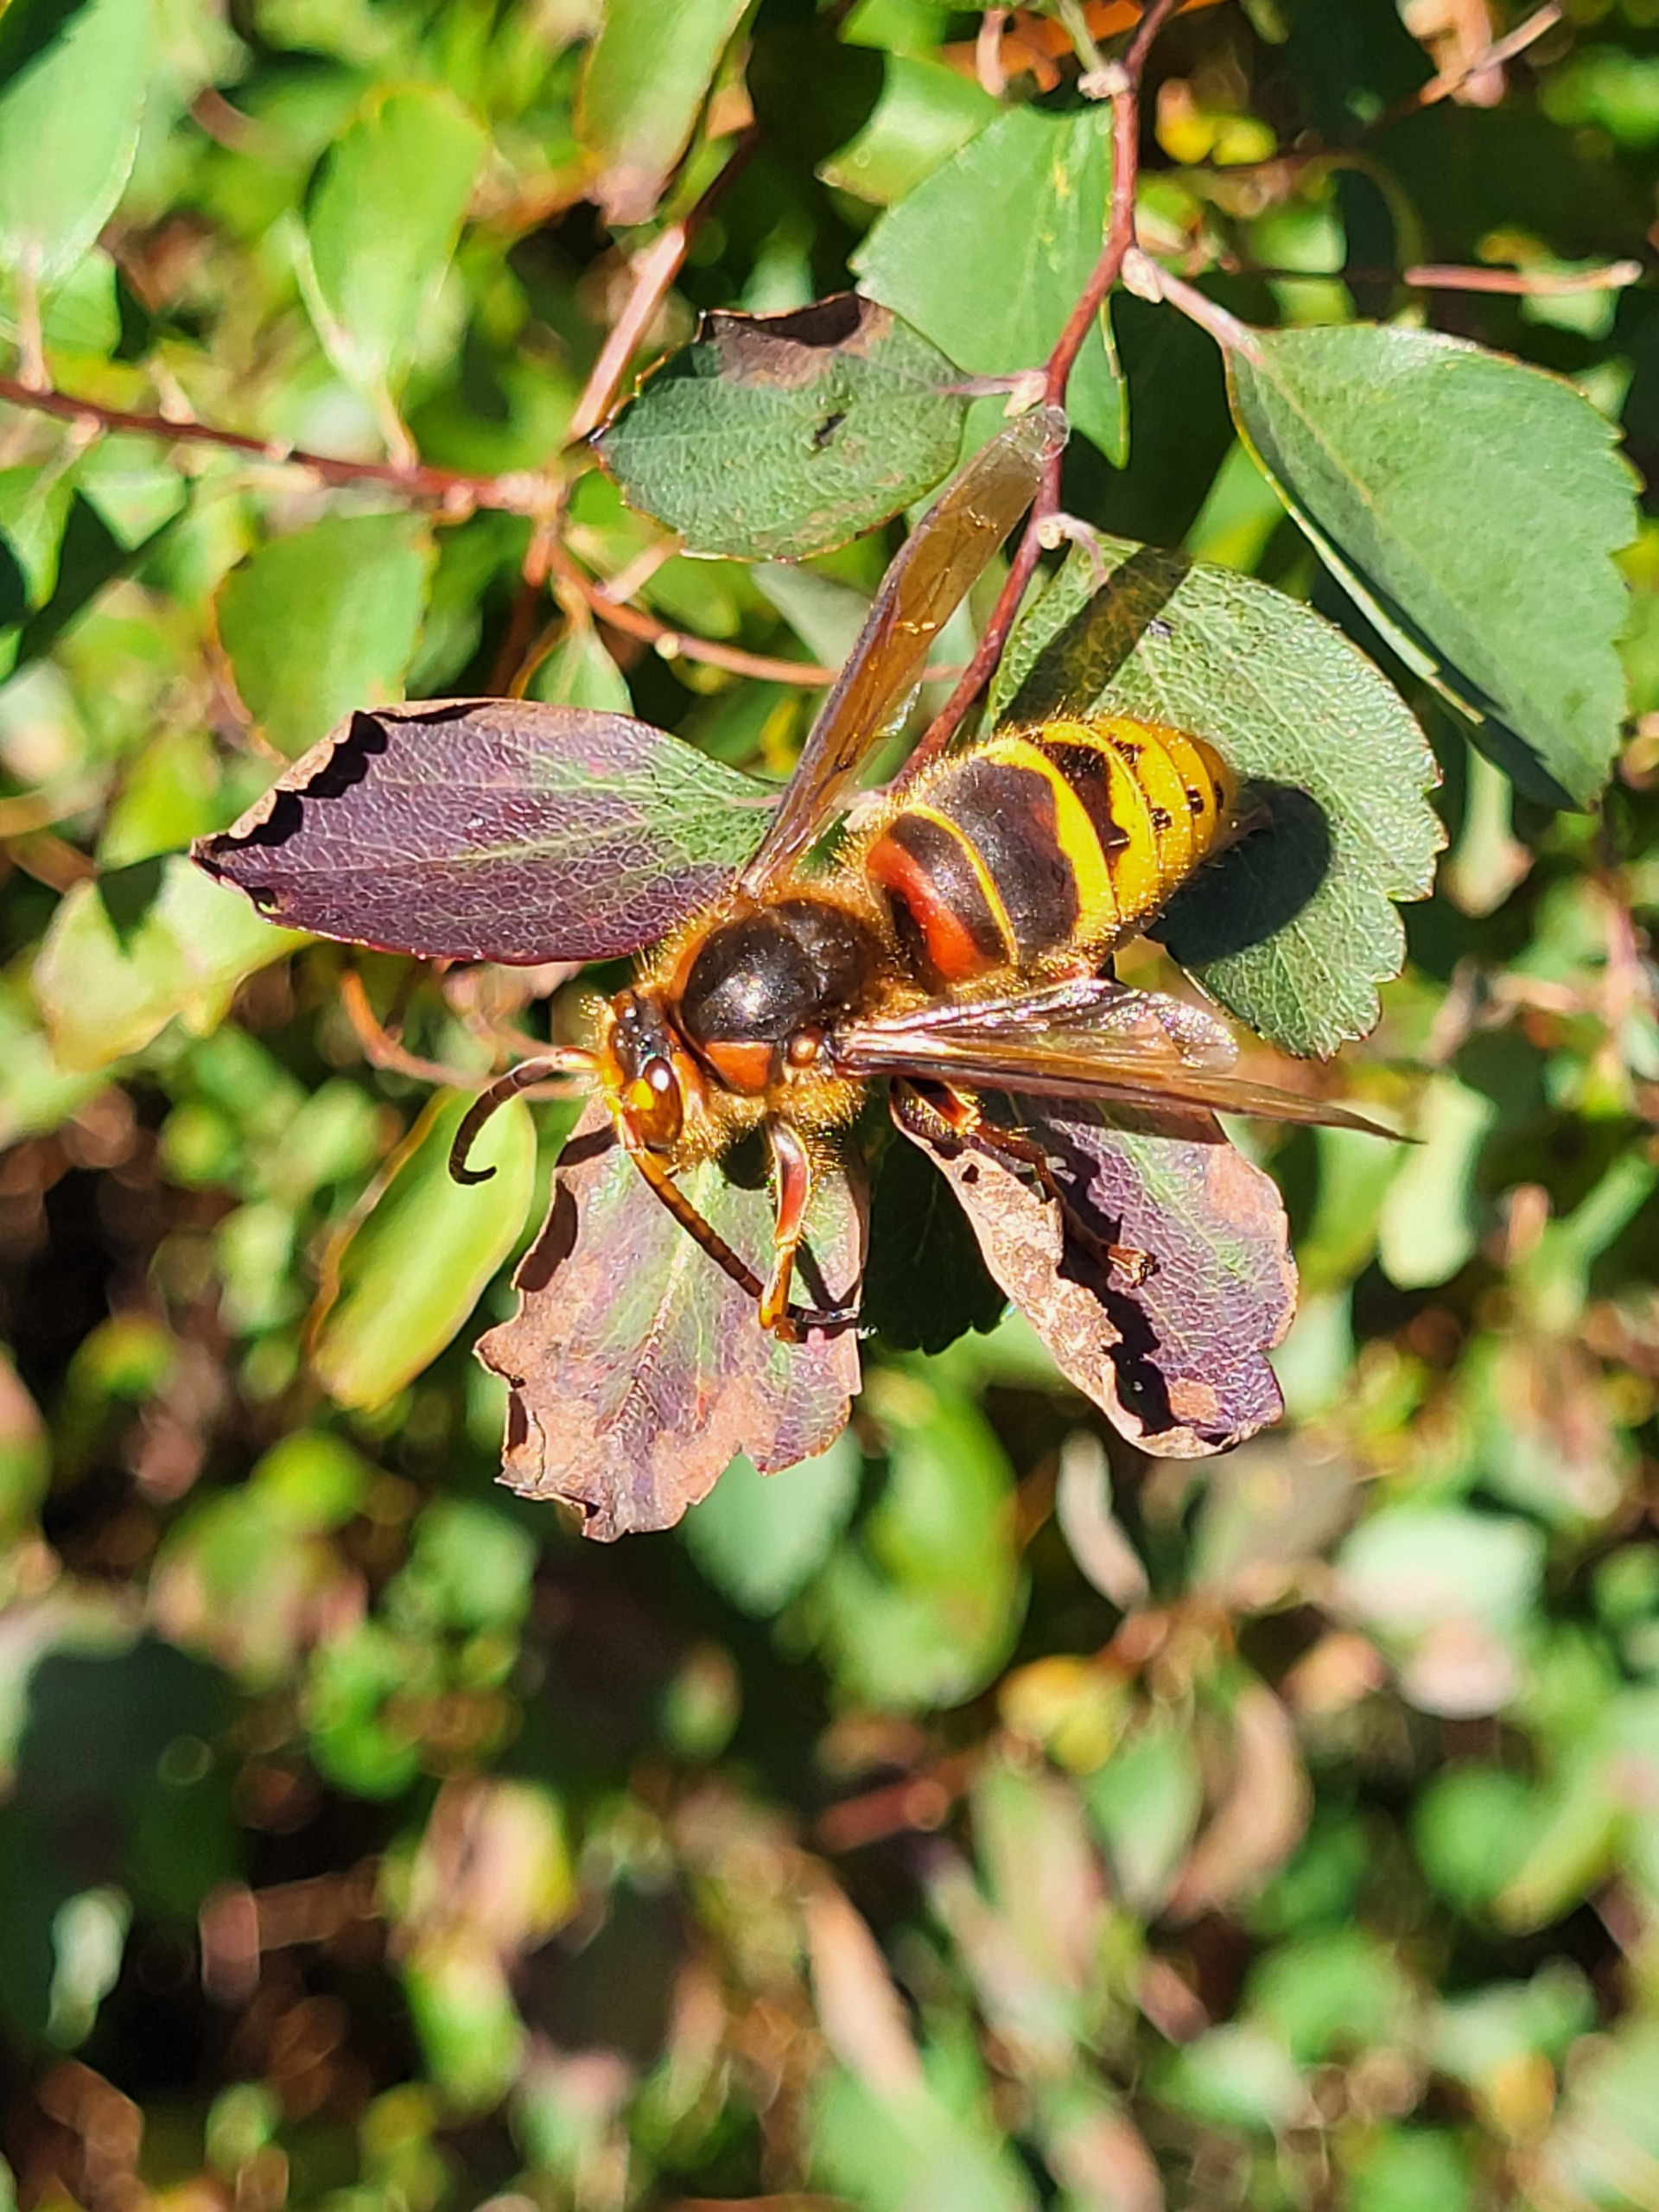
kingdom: Animalia
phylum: Arthropoda
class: Insecta
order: Hymenoptera
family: Vespidae
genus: Vespa
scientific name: Vespa crabro
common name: Stor gedehams
